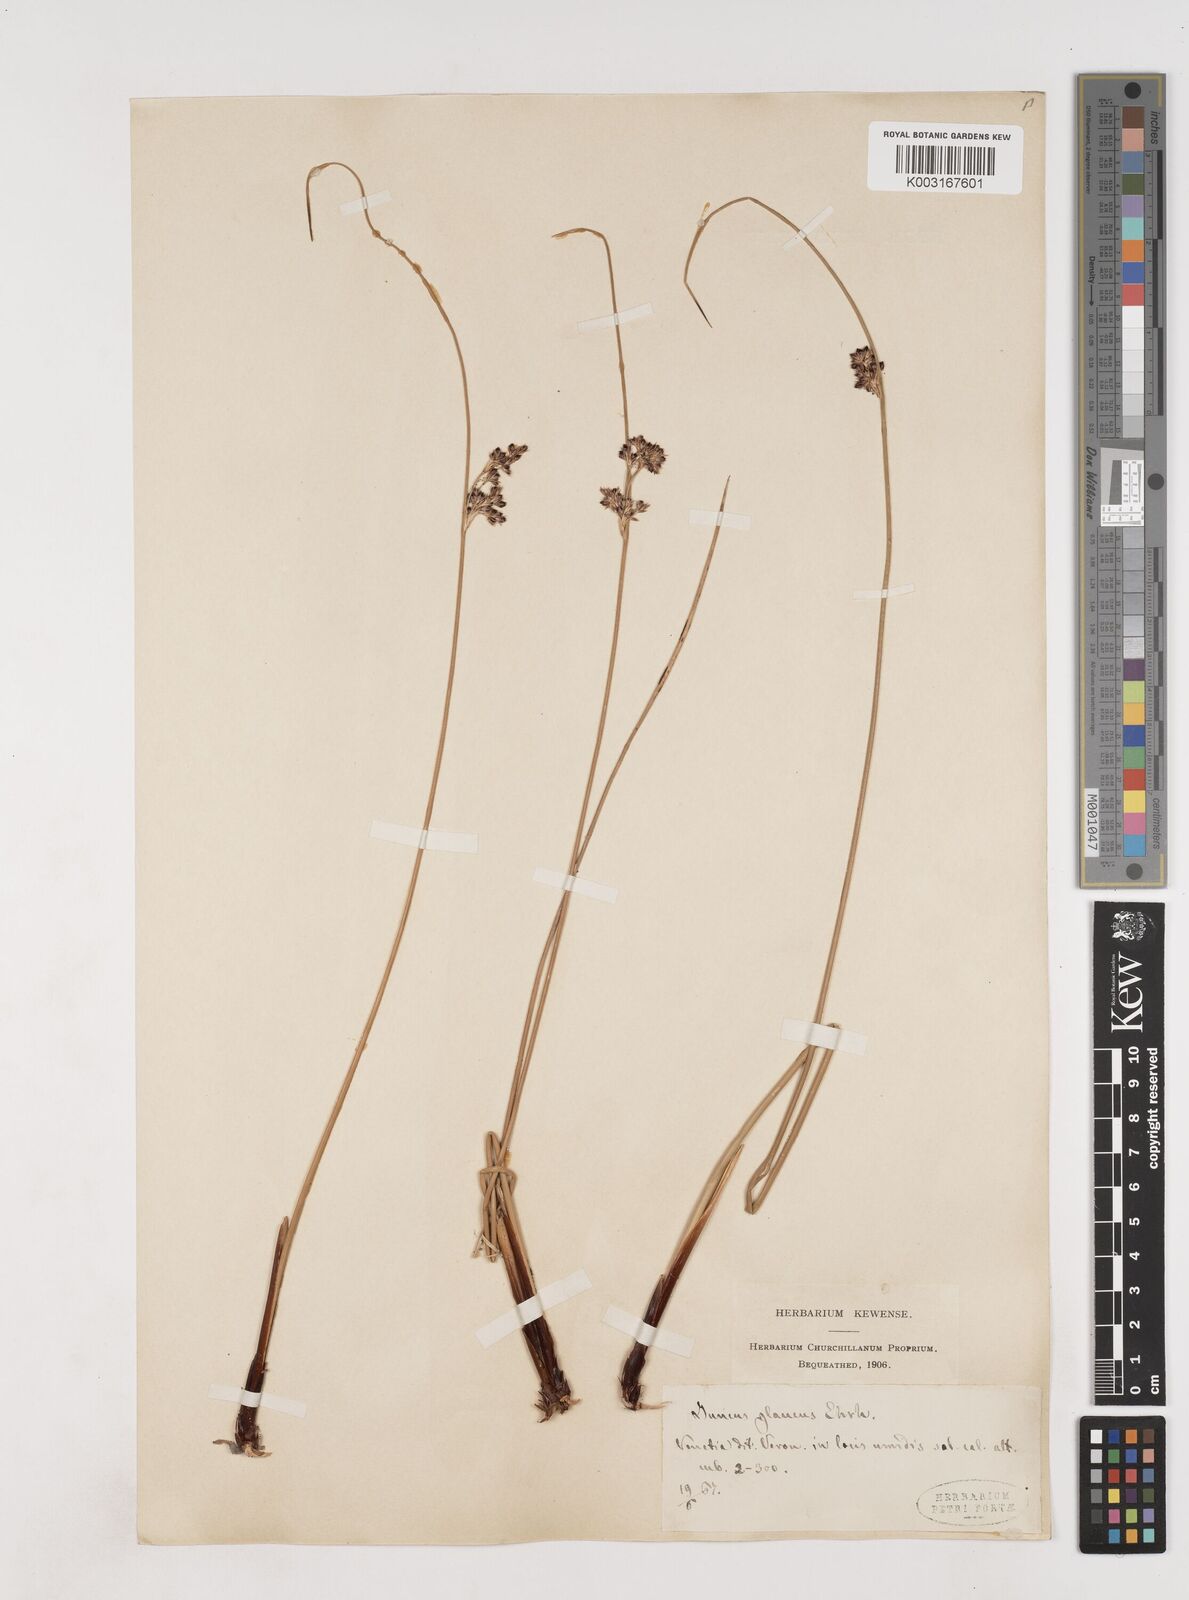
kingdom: Plantae
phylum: Tracheophyta
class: Liliopsida
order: Poales
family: Juncaceae
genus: Juncus
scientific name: Juncus inflexus
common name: Hard rush
